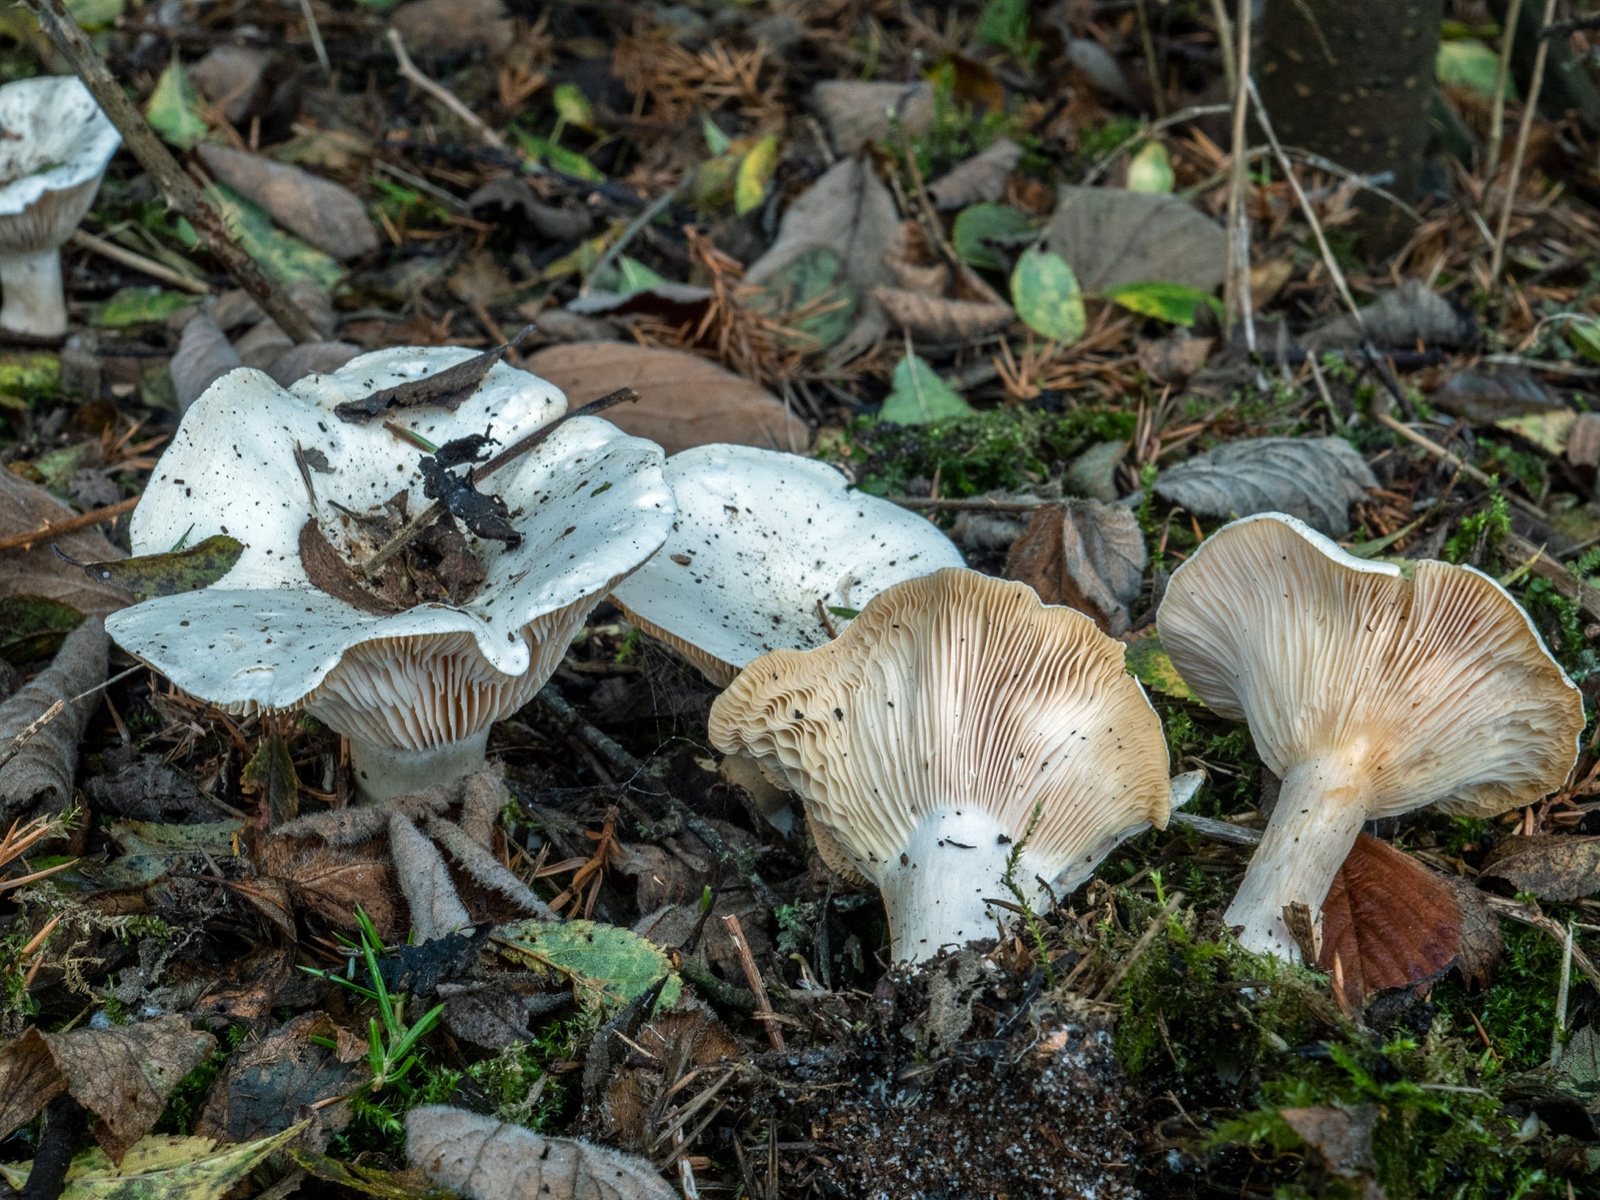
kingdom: Fungi
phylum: Basidiomycota
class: Agaricomycetes
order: Agaricales
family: Tricholomataceae
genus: Pseudoclitopilus
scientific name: Pseudoclitopilus rhodoleucus
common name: rosabladet tragtridderhat
